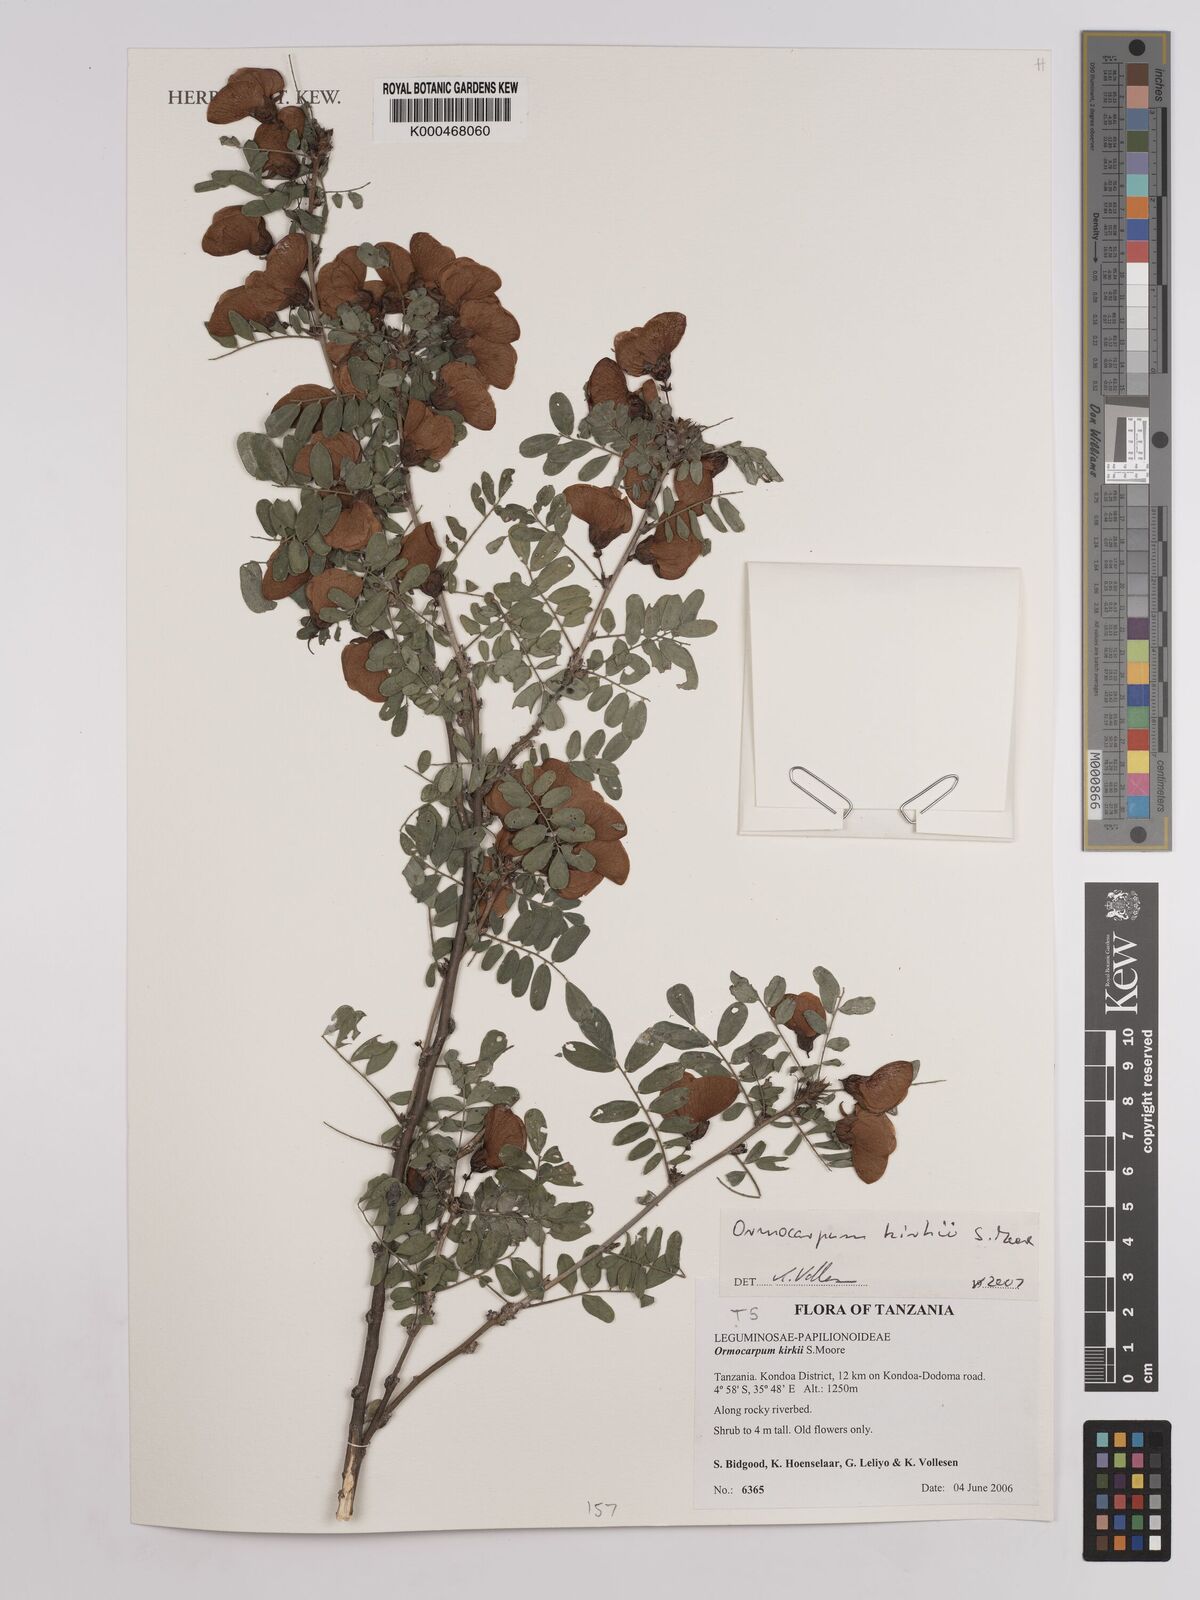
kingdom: Plantae
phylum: Tracheophyta
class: Magnoliopsida
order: Fabales
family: Fabaceae
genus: Ormocarpum
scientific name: Ormocarpum kirkii
